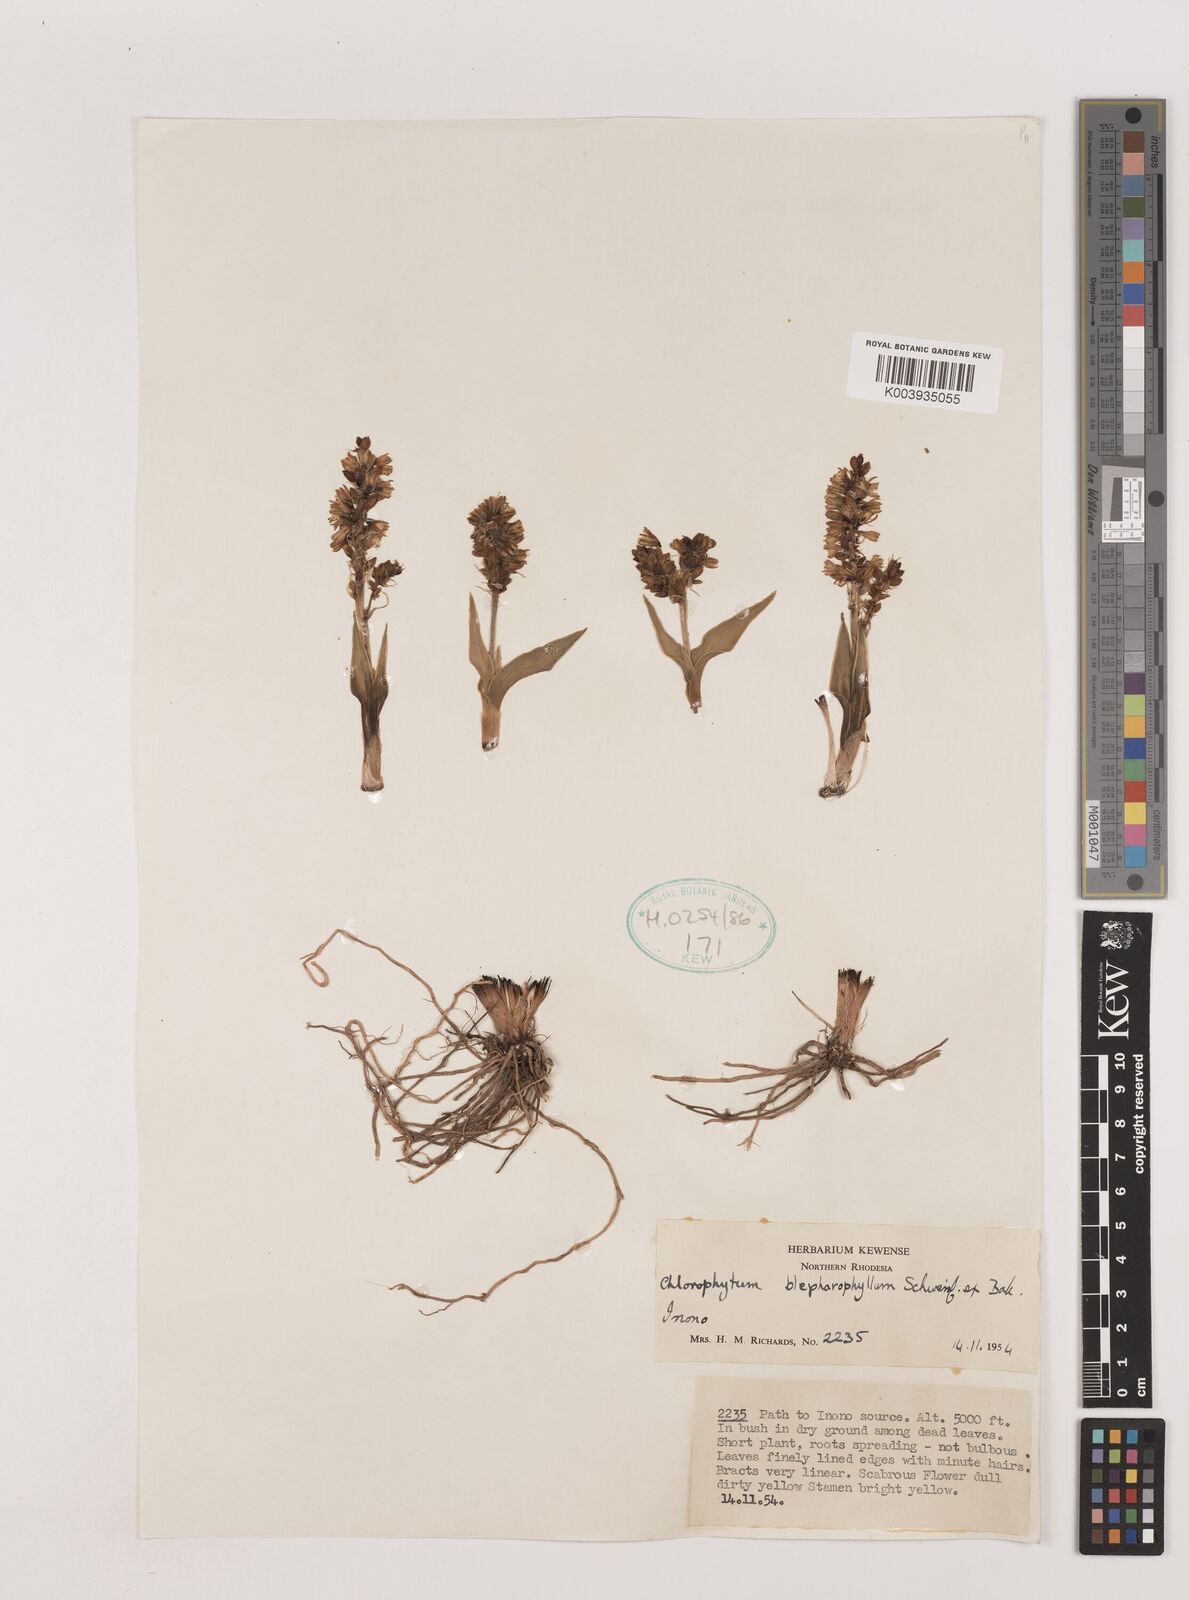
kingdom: Plantae
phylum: Tracheophyta
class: Liliopsida
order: Asparagales
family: Asparagaceae
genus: Chlorophytum
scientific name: Chlorophytum blepharophyllum
